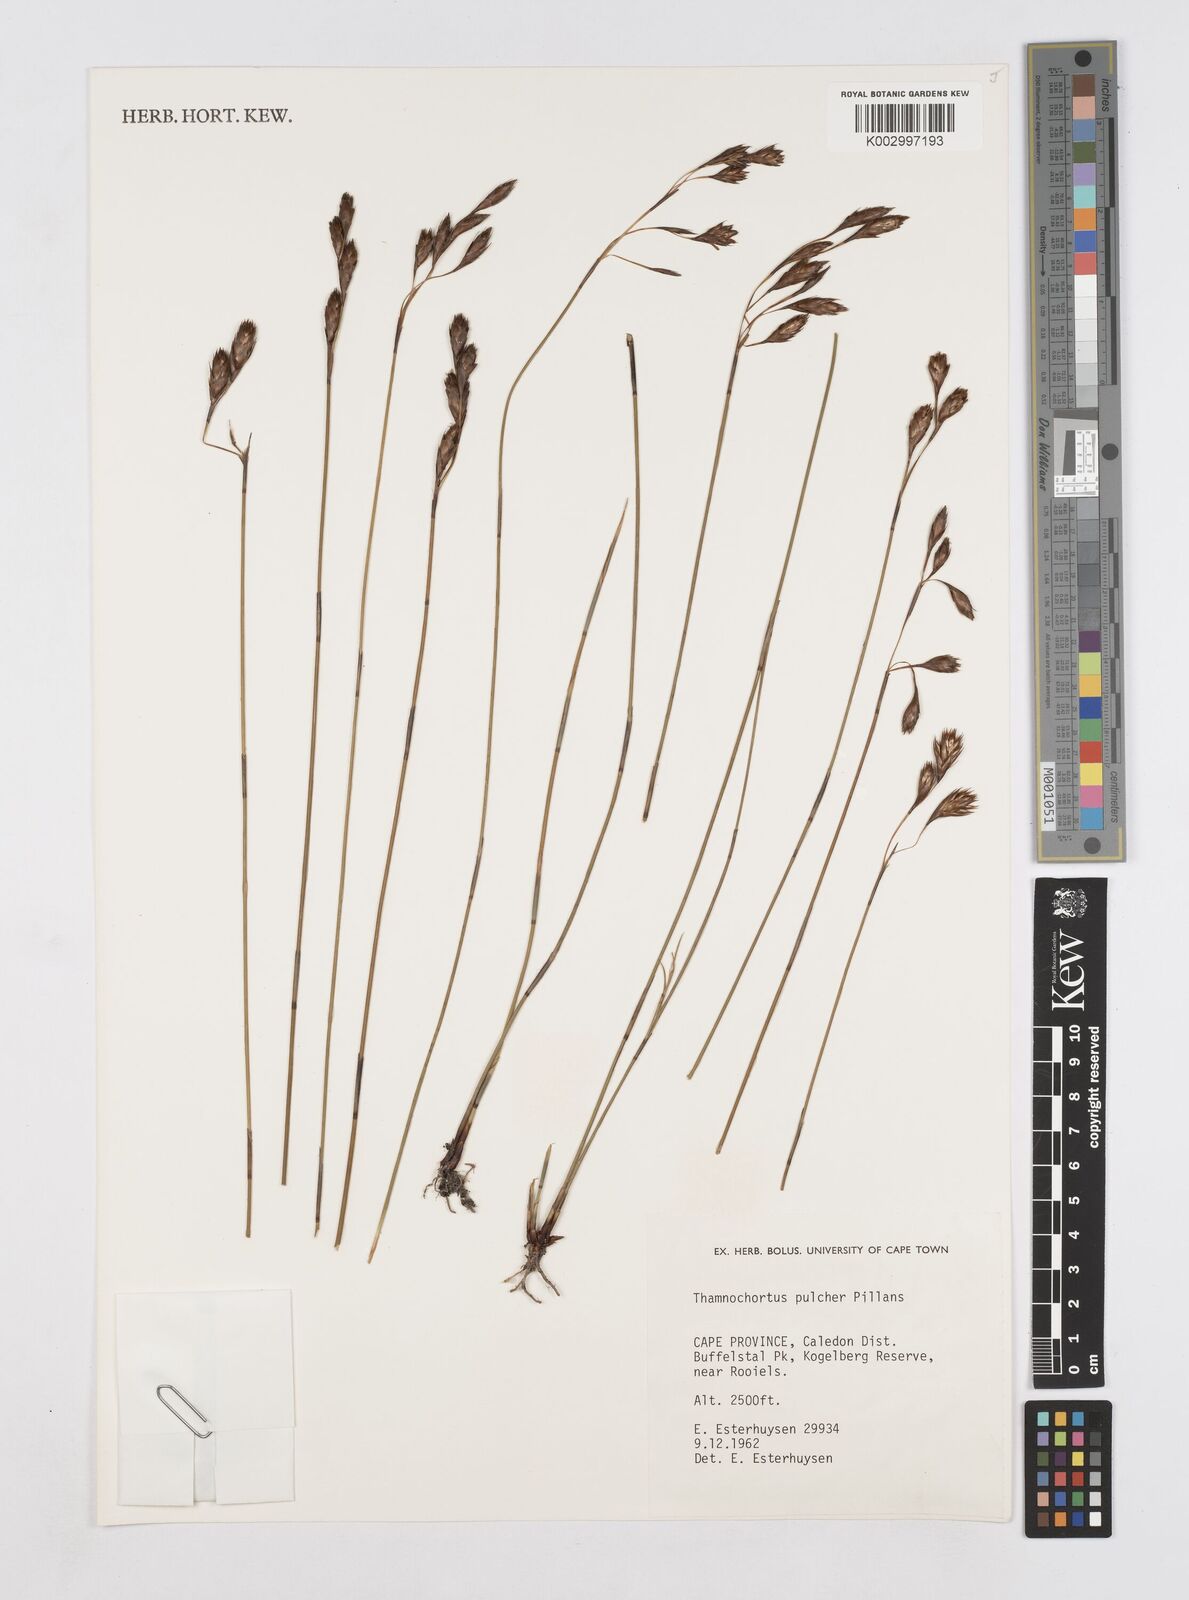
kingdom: Plantae
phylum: Tracheophyta
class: Liliopsida
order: Poales
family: Restionaceae
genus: Thamnochortus
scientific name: Thamnochortus pulcher
